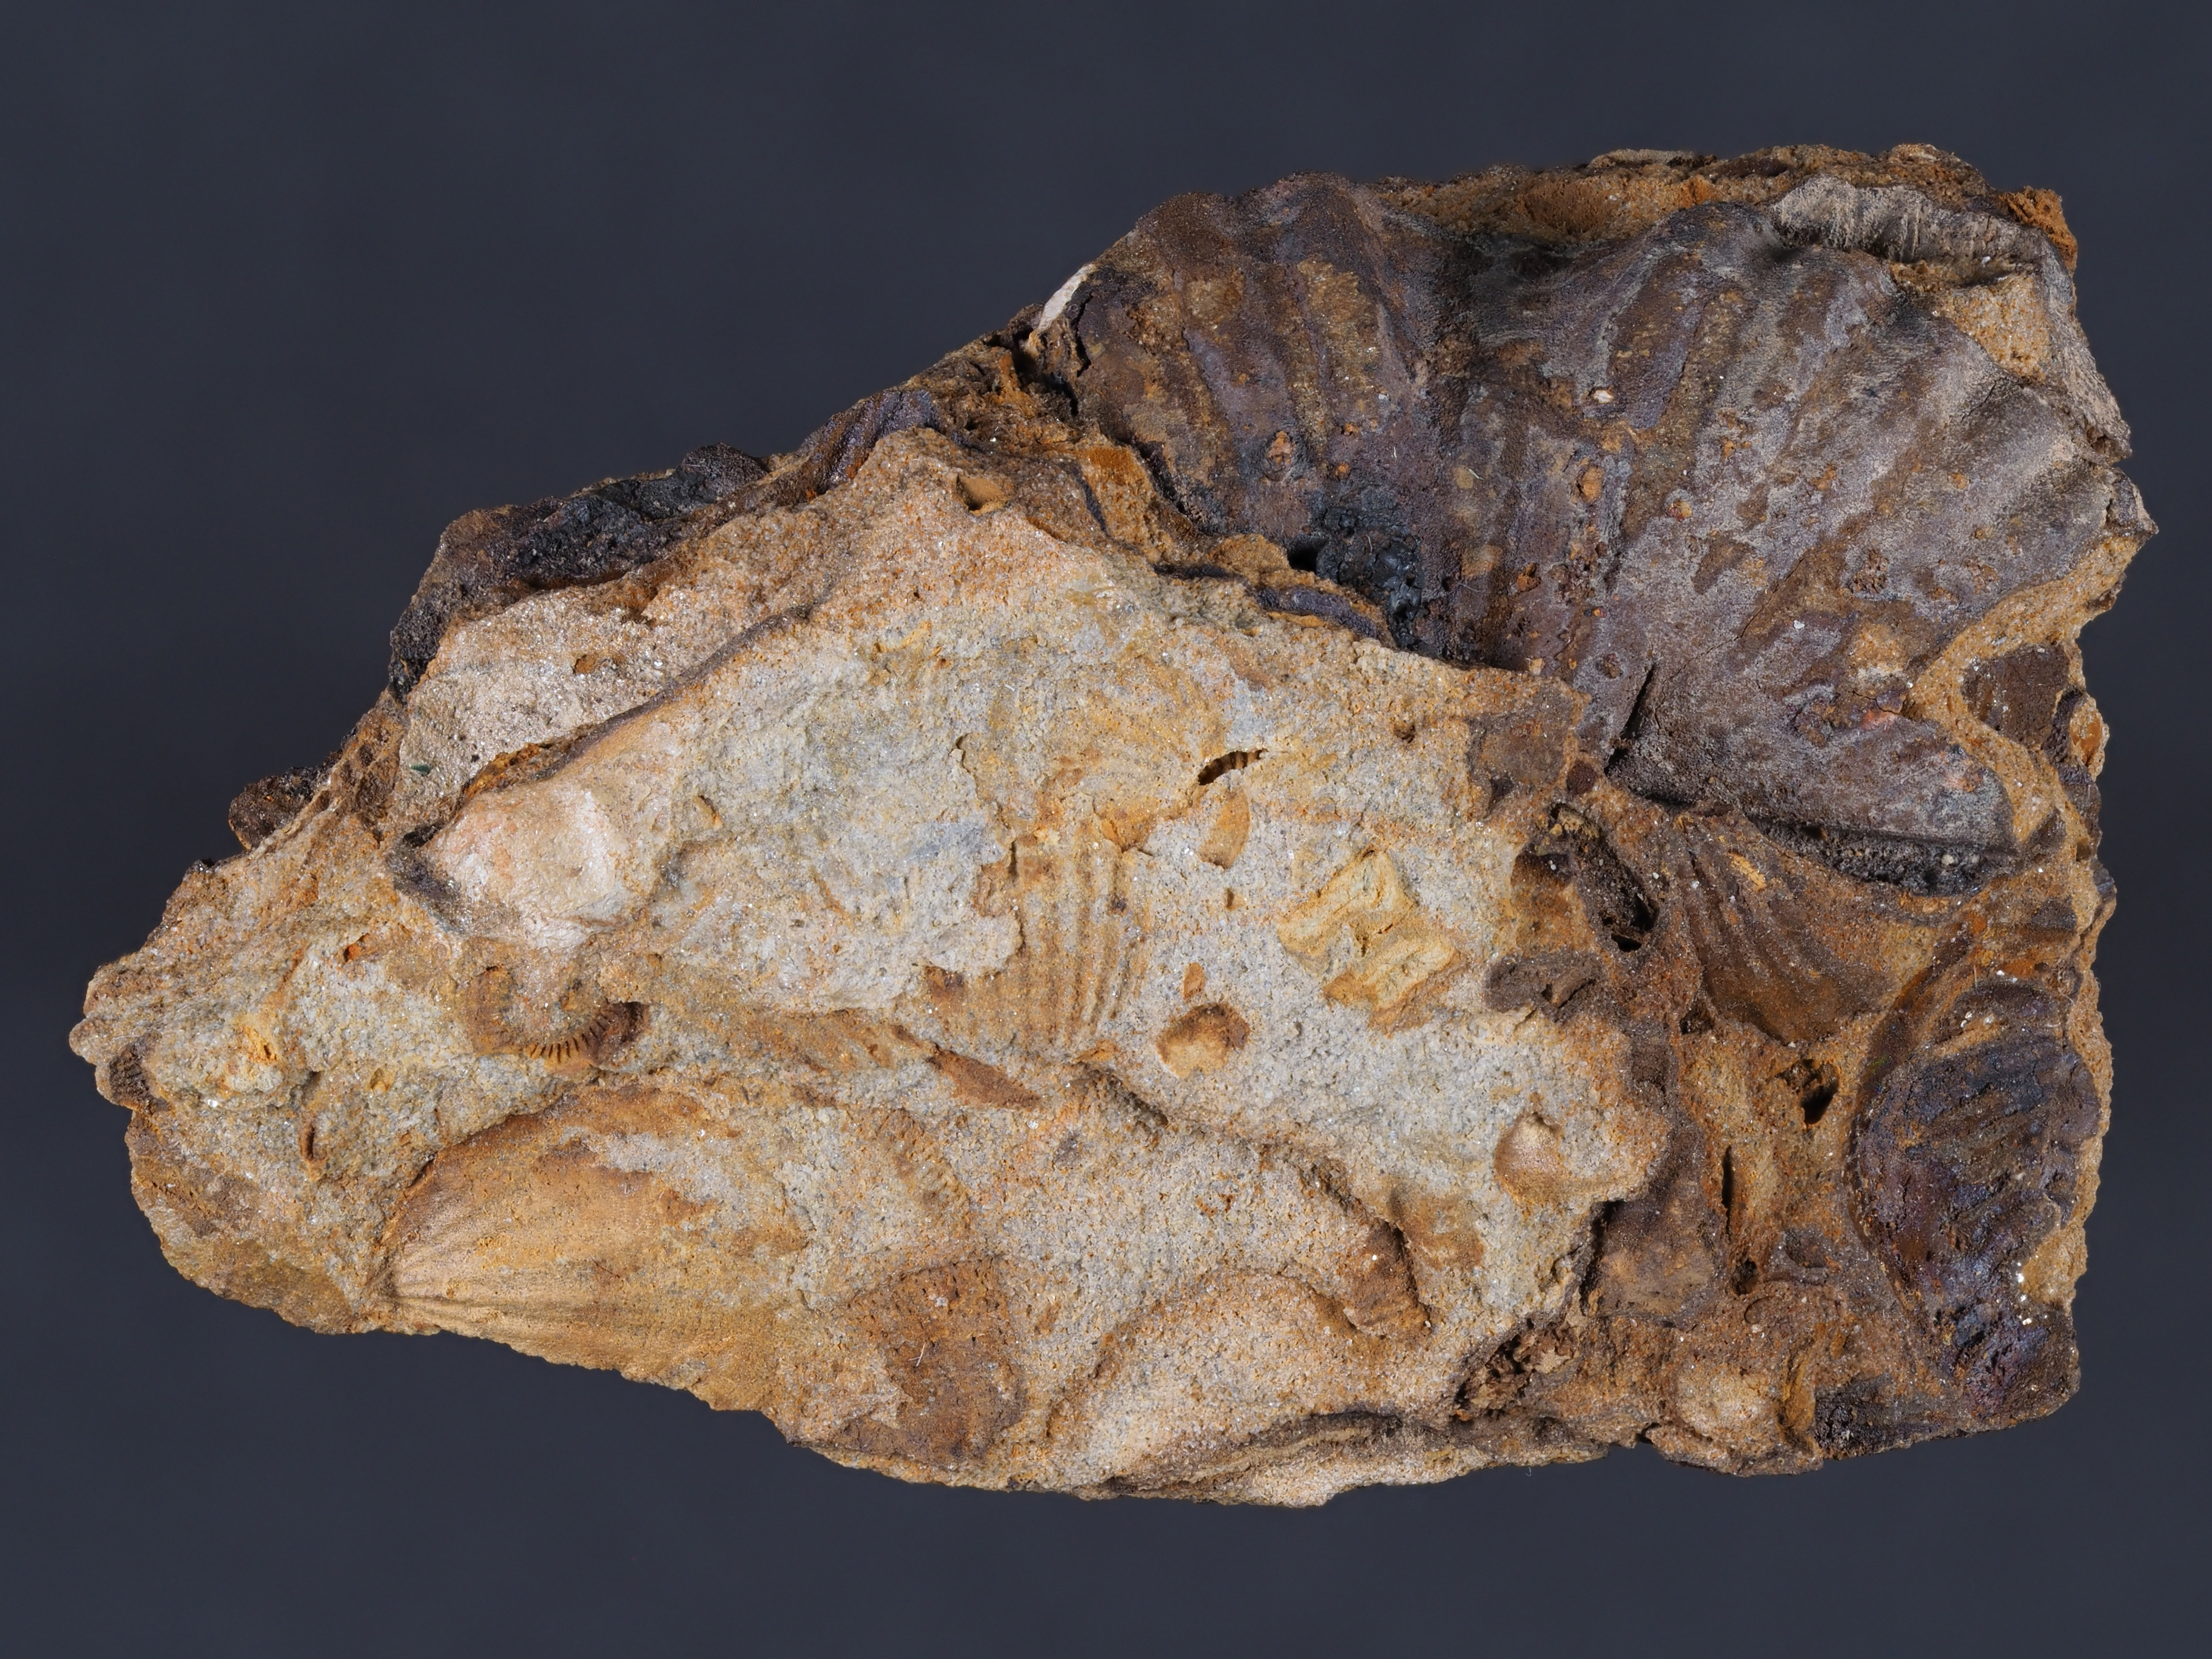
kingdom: Animalia
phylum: Brachiopoda
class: Rhynchonellata
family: Delthyrididae
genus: Euryspirifer
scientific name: Euryspirifer
